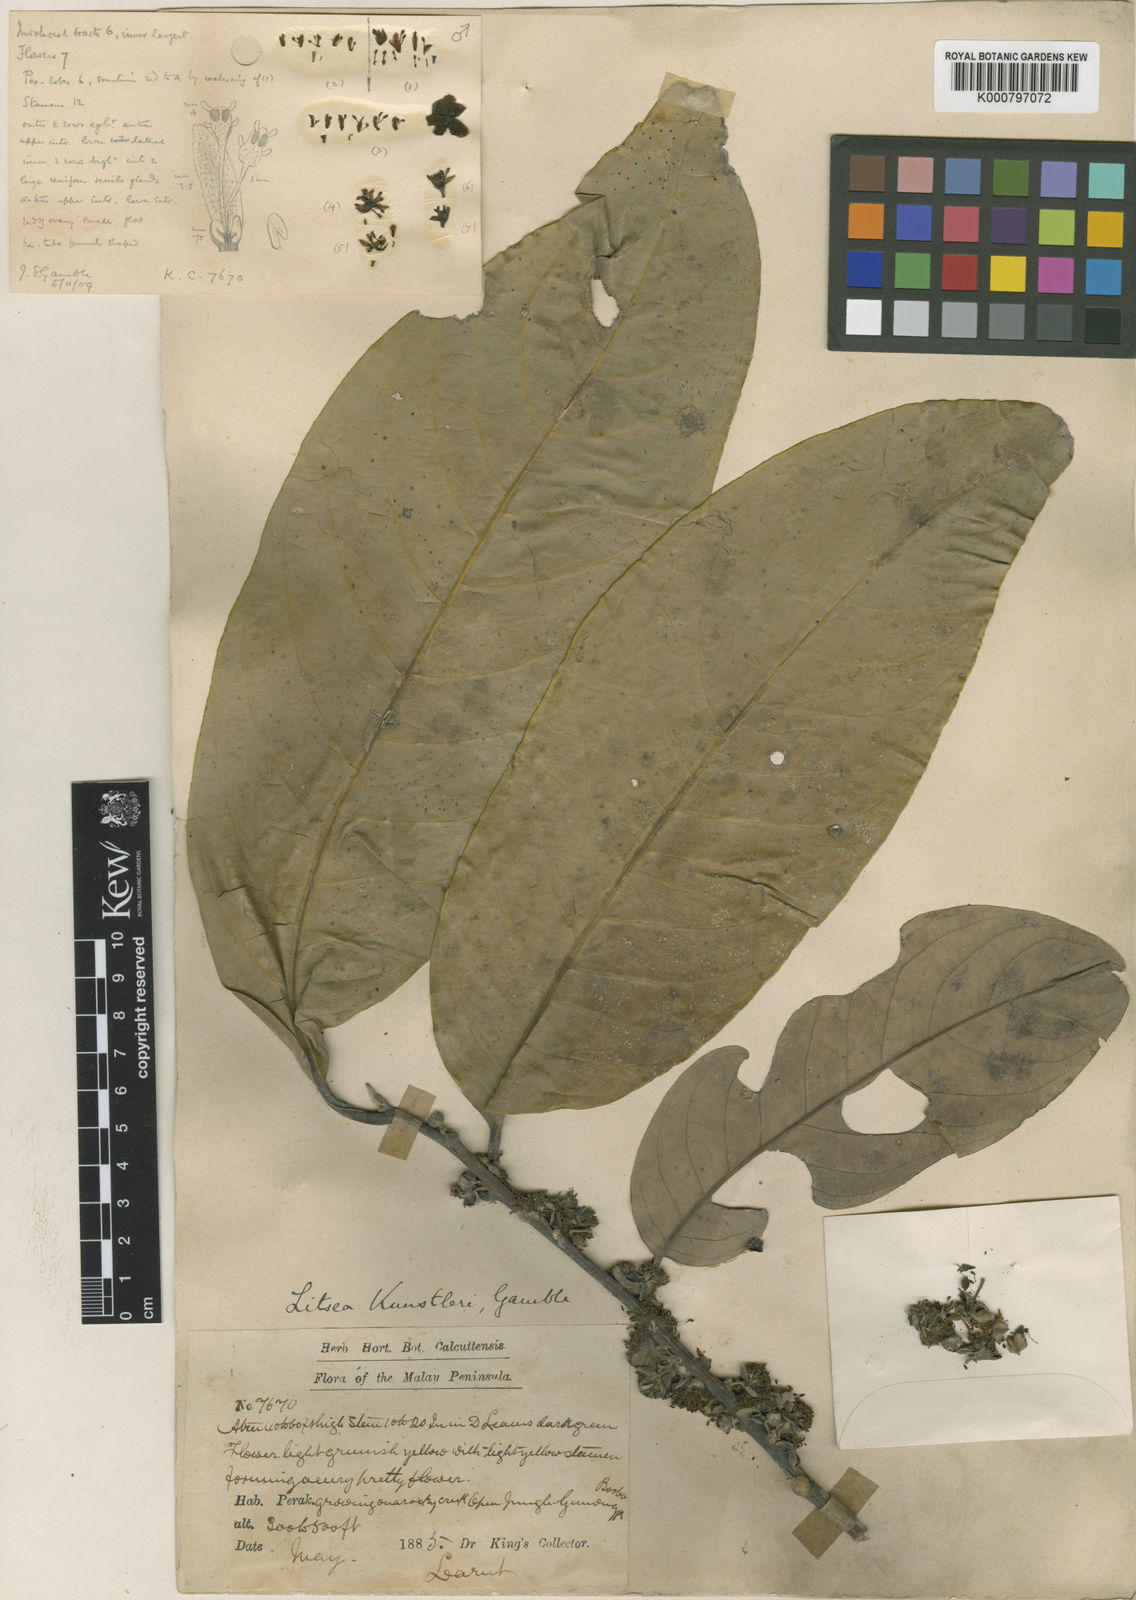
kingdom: Plantae
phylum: Tracheophyta
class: Magnoliopsida
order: Laurales
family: Lauraceae
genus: Litsea
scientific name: Litsea accedens
